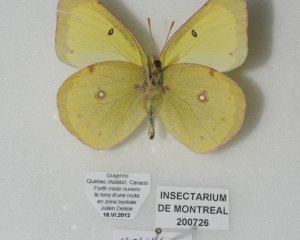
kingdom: Animalia
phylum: Arthropoda
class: Insecta
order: Lepidoptera
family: Pieridae
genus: Colias
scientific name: Colias interior
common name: Pink-edged Sulphur
